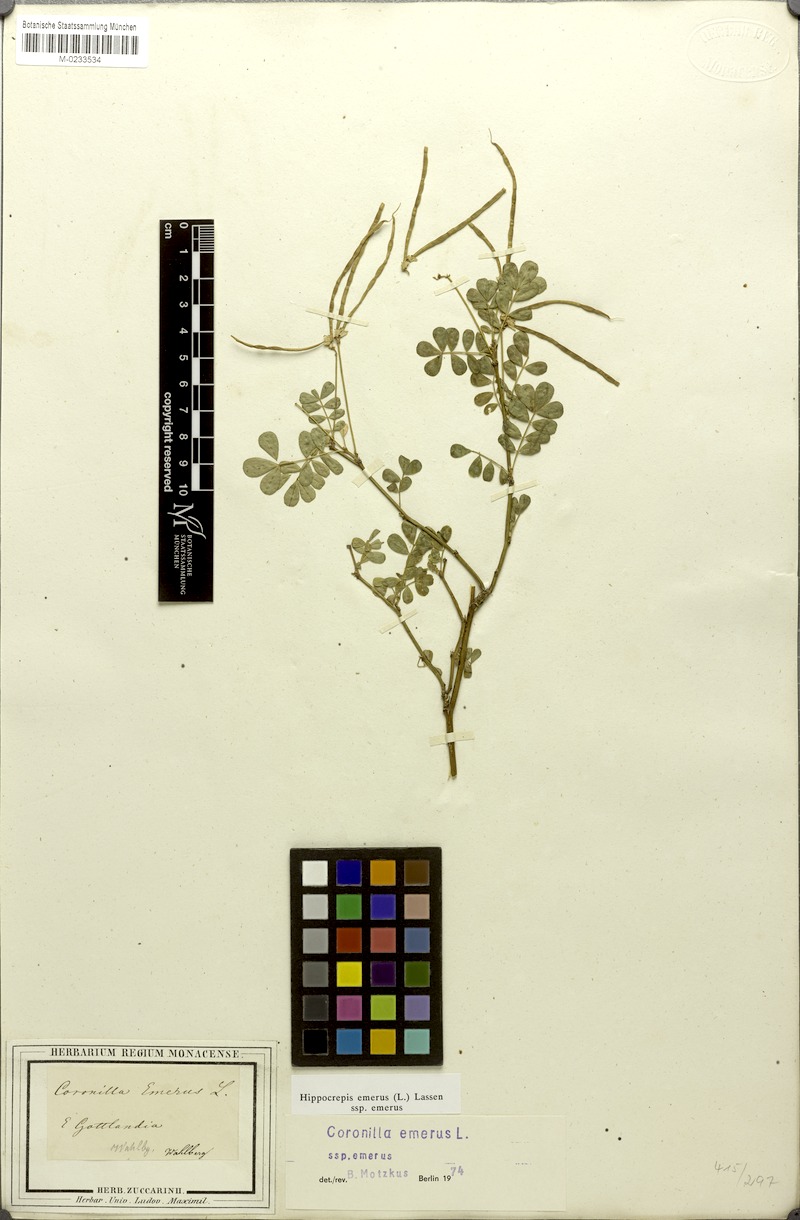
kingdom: Plantae
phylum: Tracheophyta
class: Magnoliopsida
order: Fabales
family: Fabaceae
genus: Hippocrepis
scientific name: Hippocrepis emerus
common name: Scorpion senna
